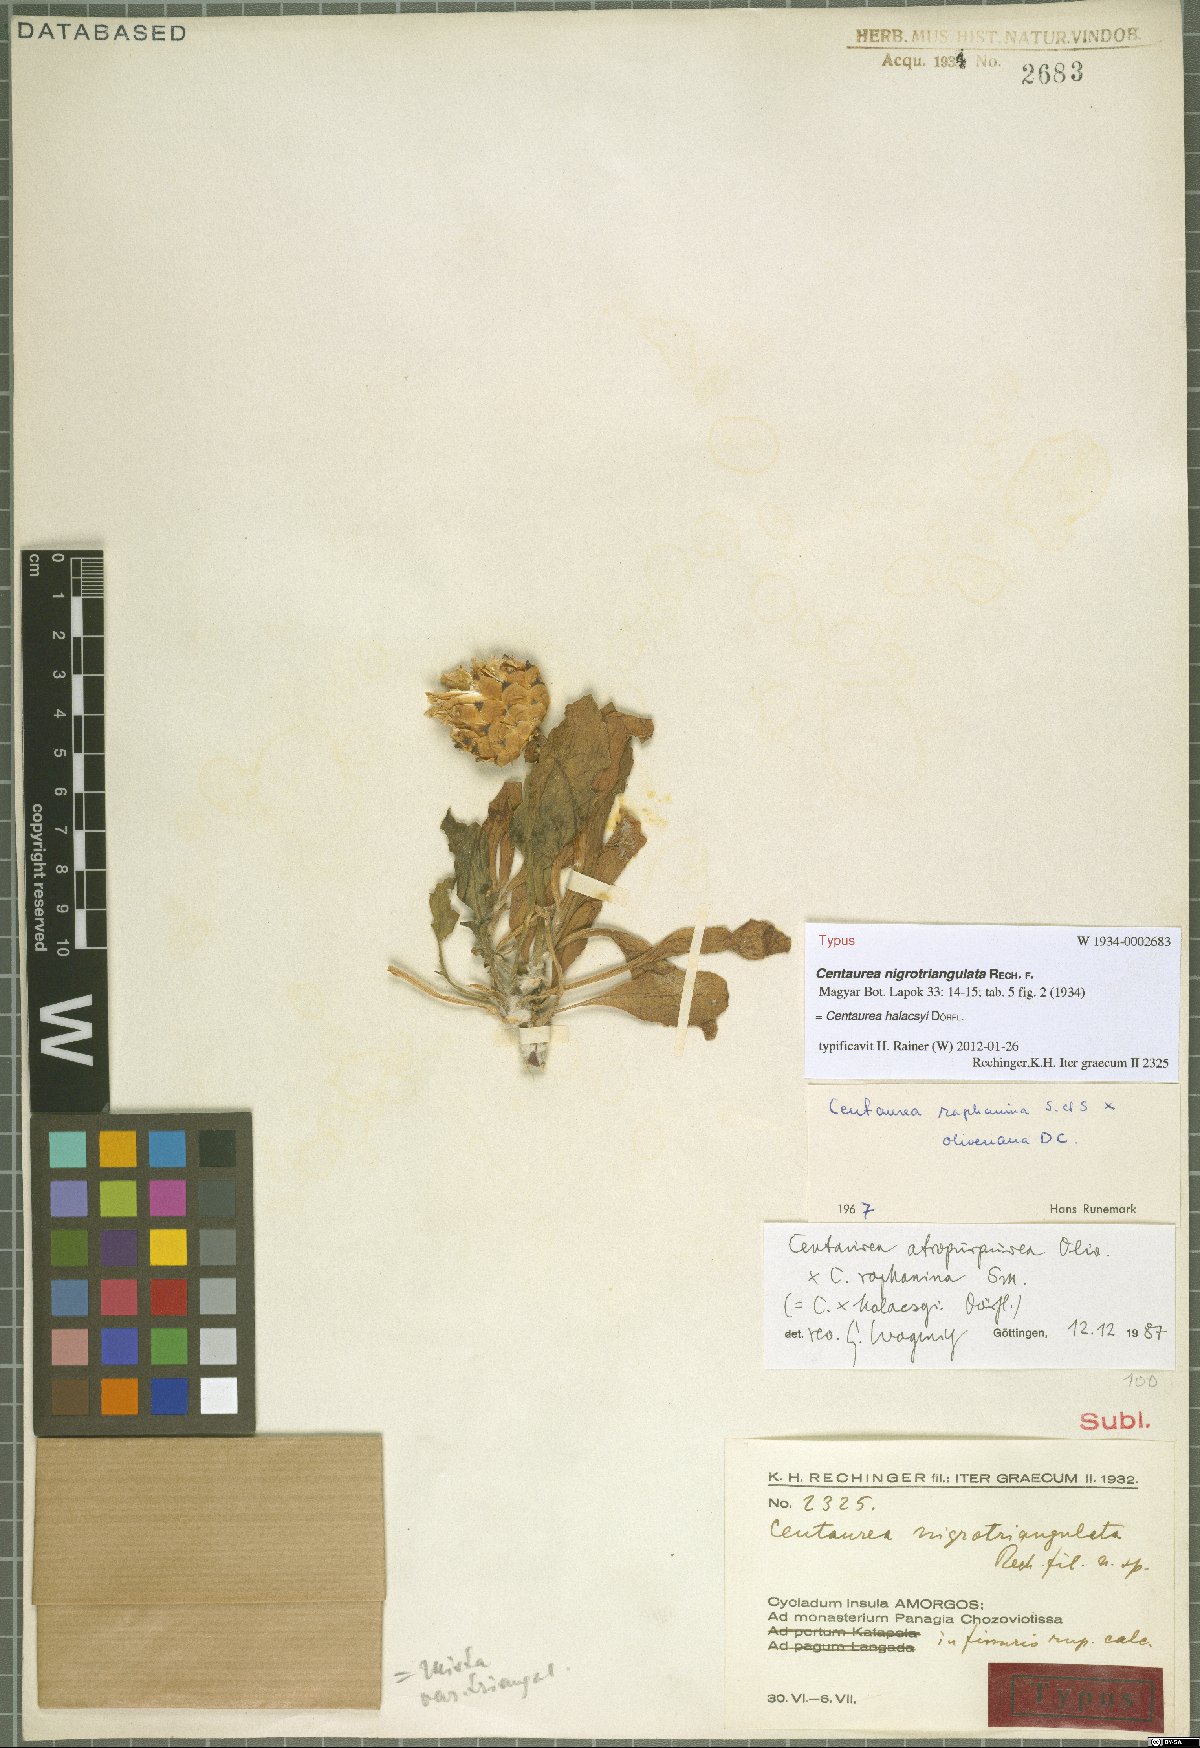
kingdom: Plantae
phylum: Tracheophyta
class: Magnoliopsida
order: Asterales
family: Asteraceae
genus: Centaurea
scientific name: Centaurea wettsteinii
